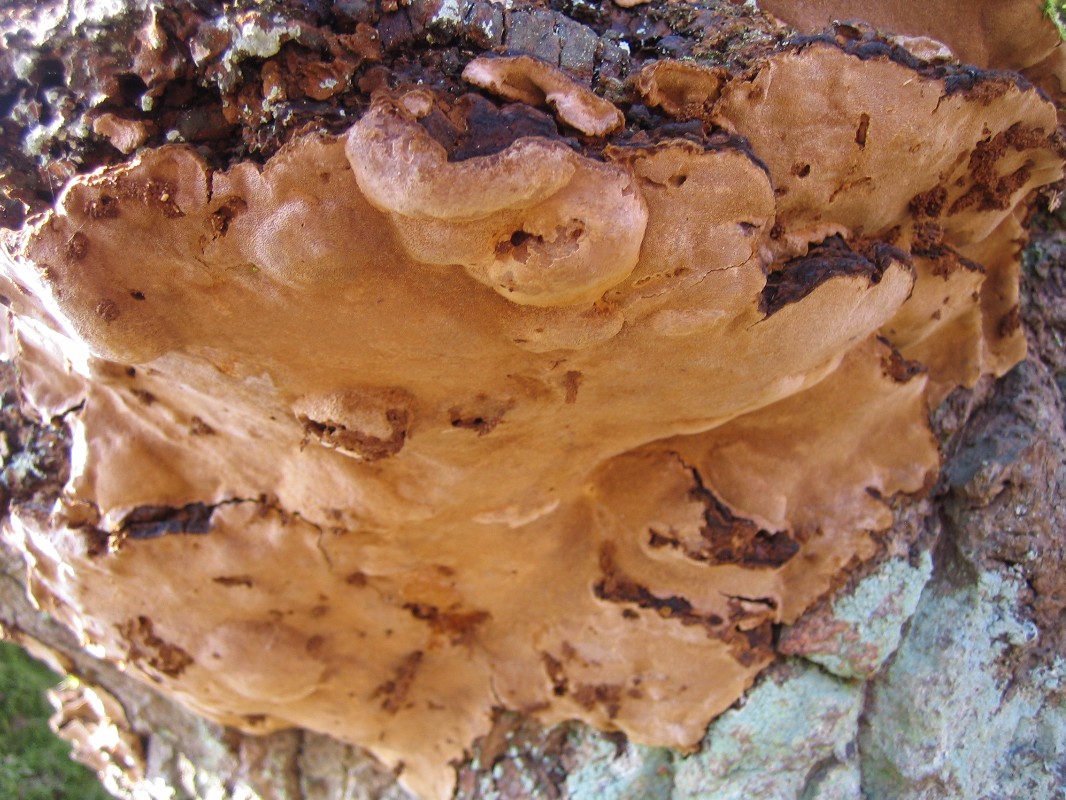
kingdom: Fungi
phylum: Basidiomycota
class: Agaricomycetes
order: Hymenochaetales
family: Hymenochaetaceae
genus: Phellinopsis
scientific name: Phellinopsis conchata
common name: pile-ildporesvamp
